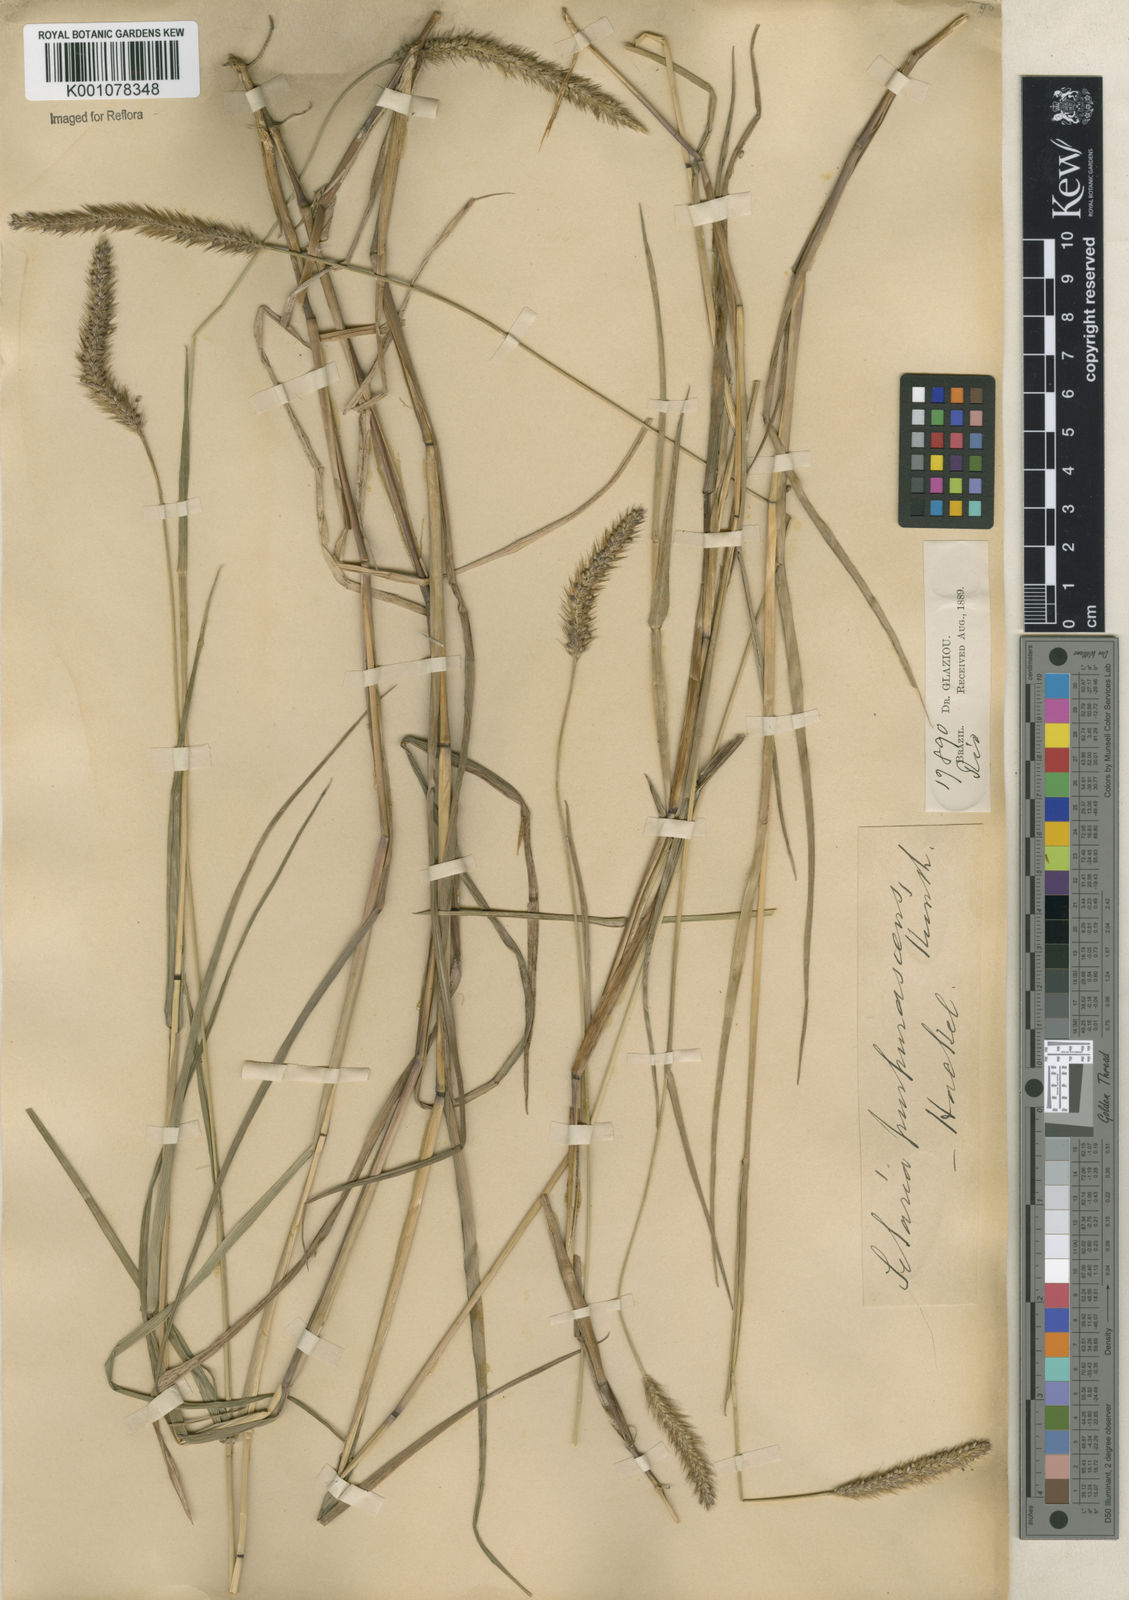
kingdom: Plantae
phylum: Tracheophyta
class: Liliopsida
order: Poales
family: Poaceae
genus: Setaria
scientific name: Setaria parviflora
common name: Knotroot bristle-grass
